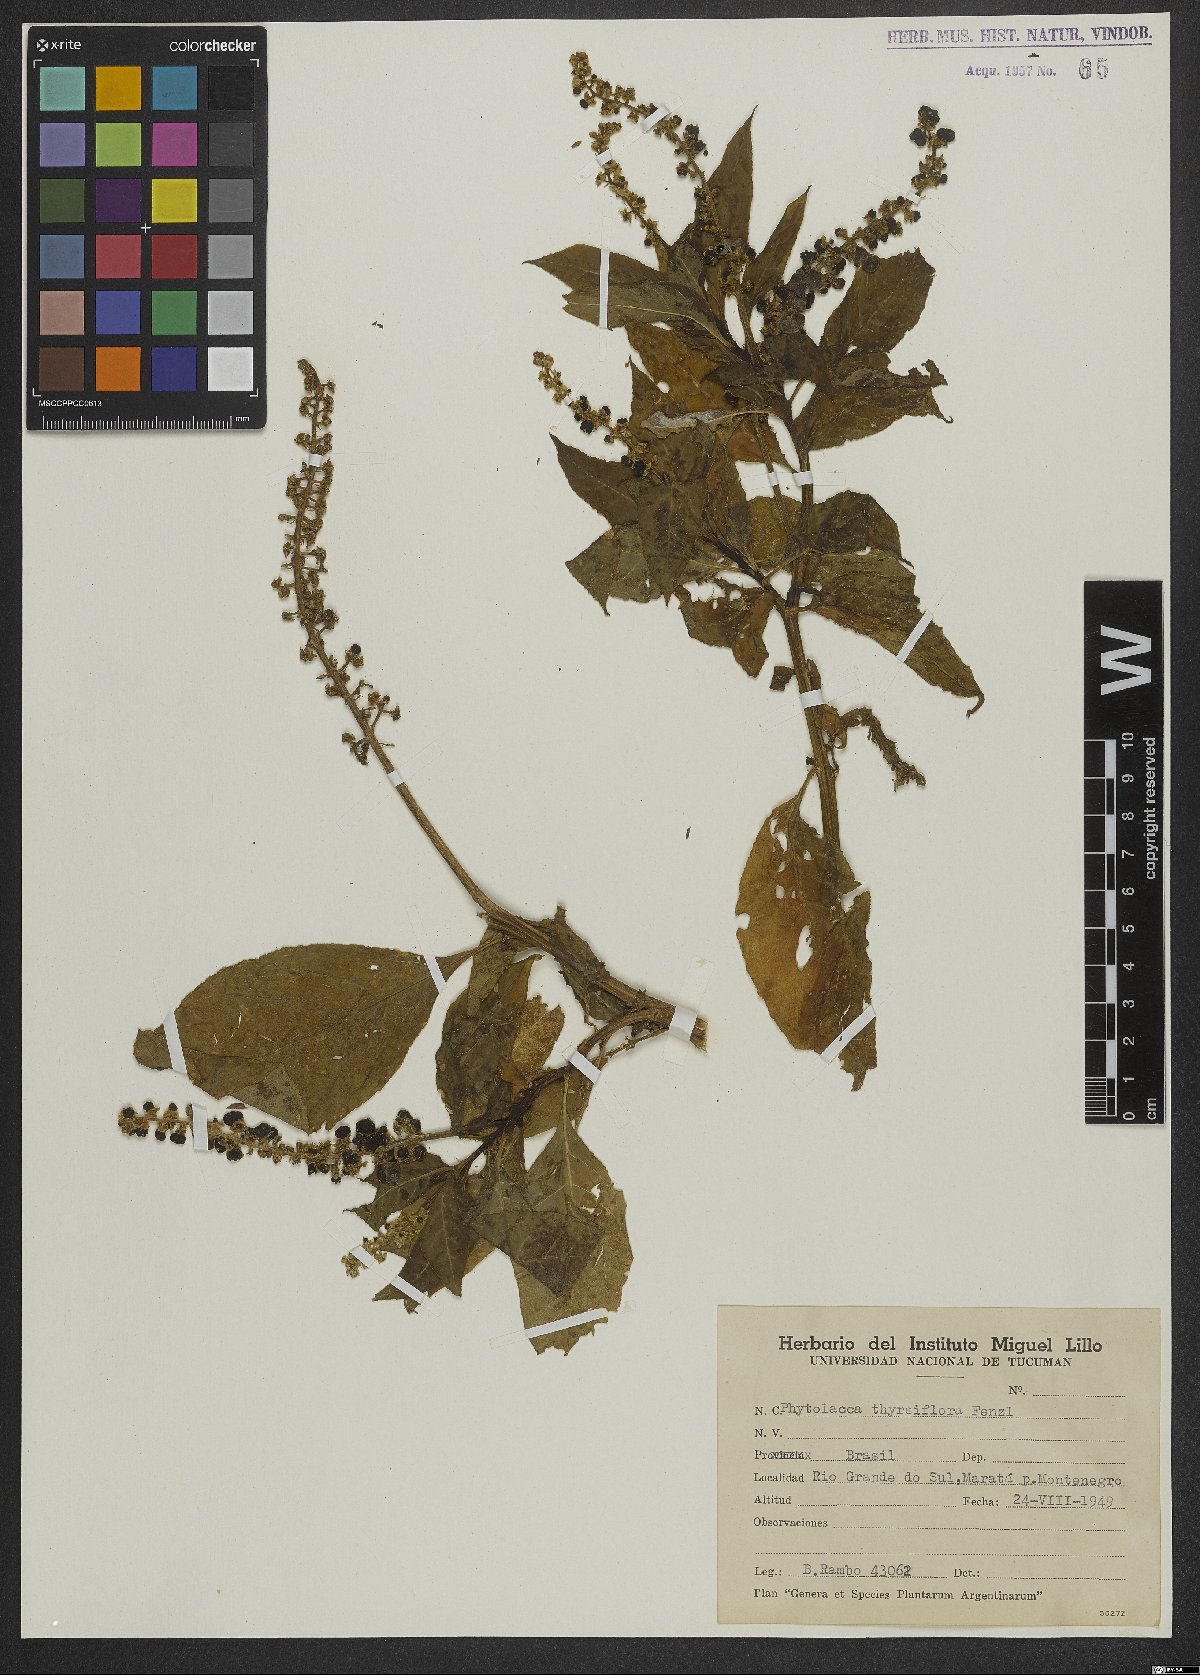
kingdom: Plantae
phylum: Tracheophyta
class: Magnoliopsida
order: Caryophyllales
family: Phytolaccaceae
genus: Phytolacca
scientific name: Phytolacca thyrsiflora
